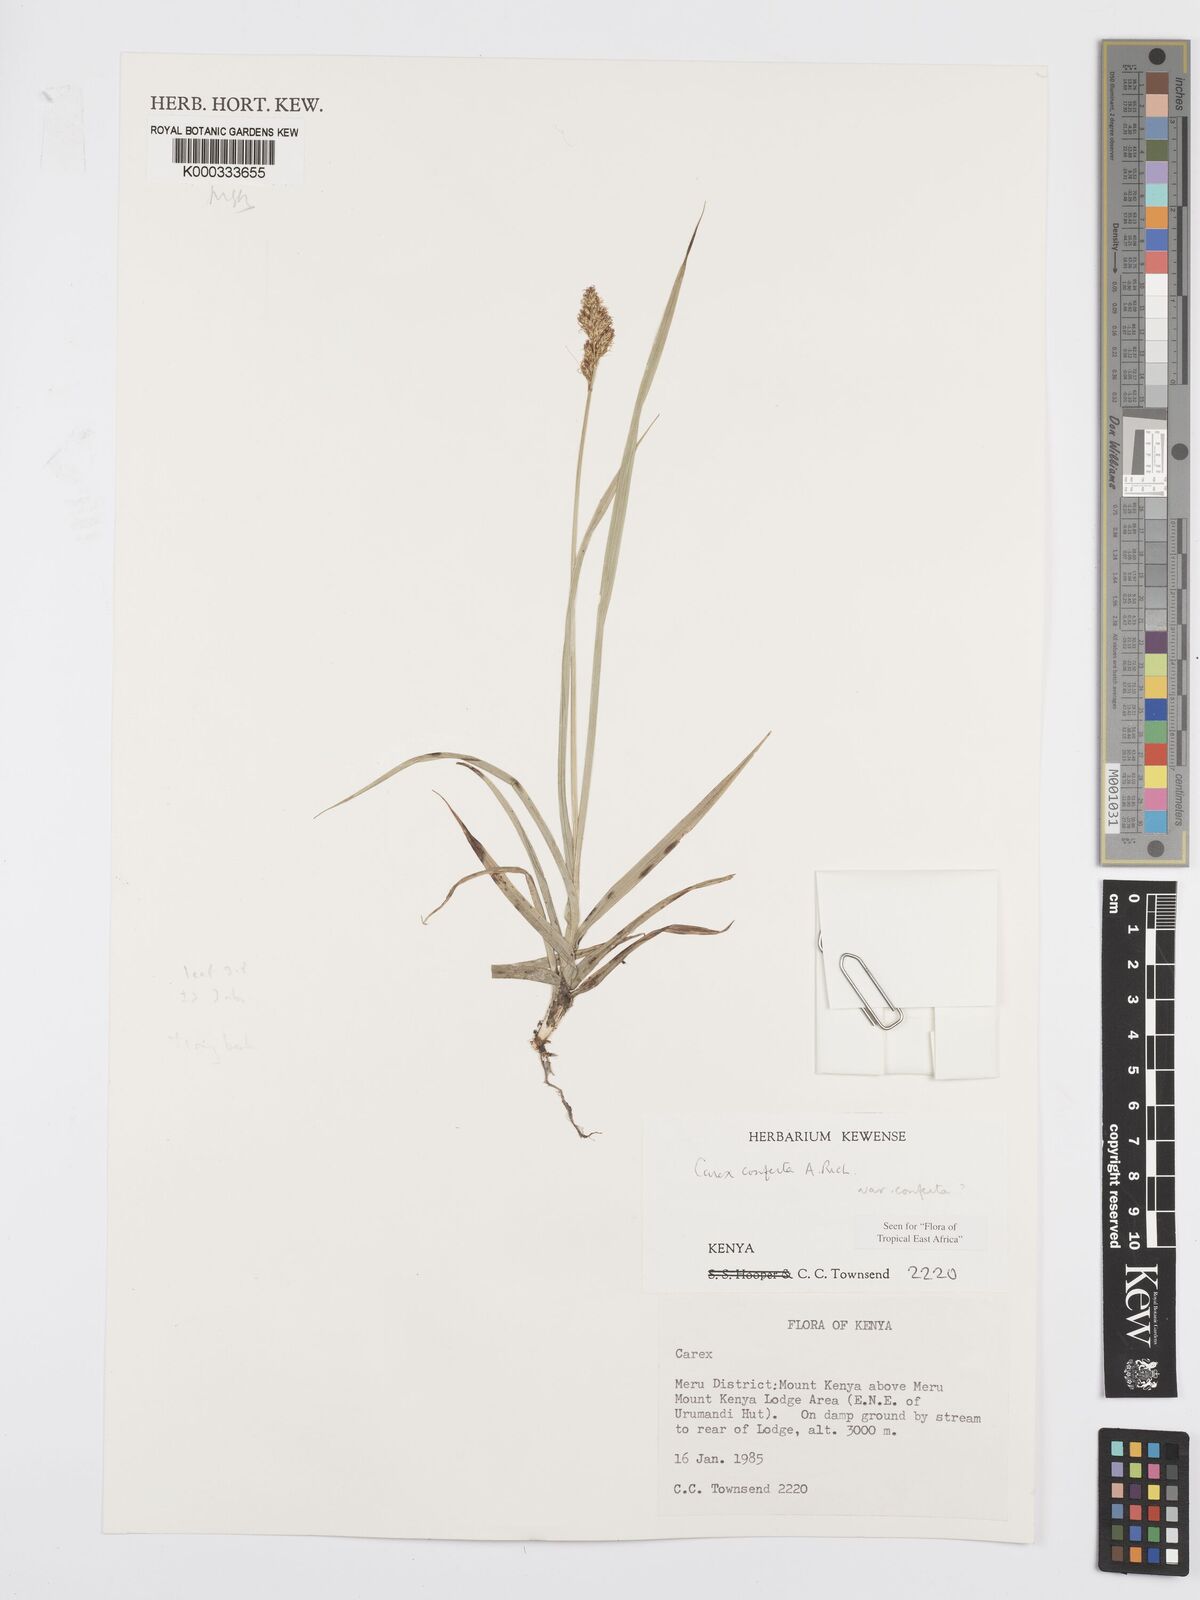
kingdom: Plantae
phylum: Tracheophyta
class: Liliopsida
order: Poales
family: Cyperaceae
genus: Carex
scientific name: Carex conferta
